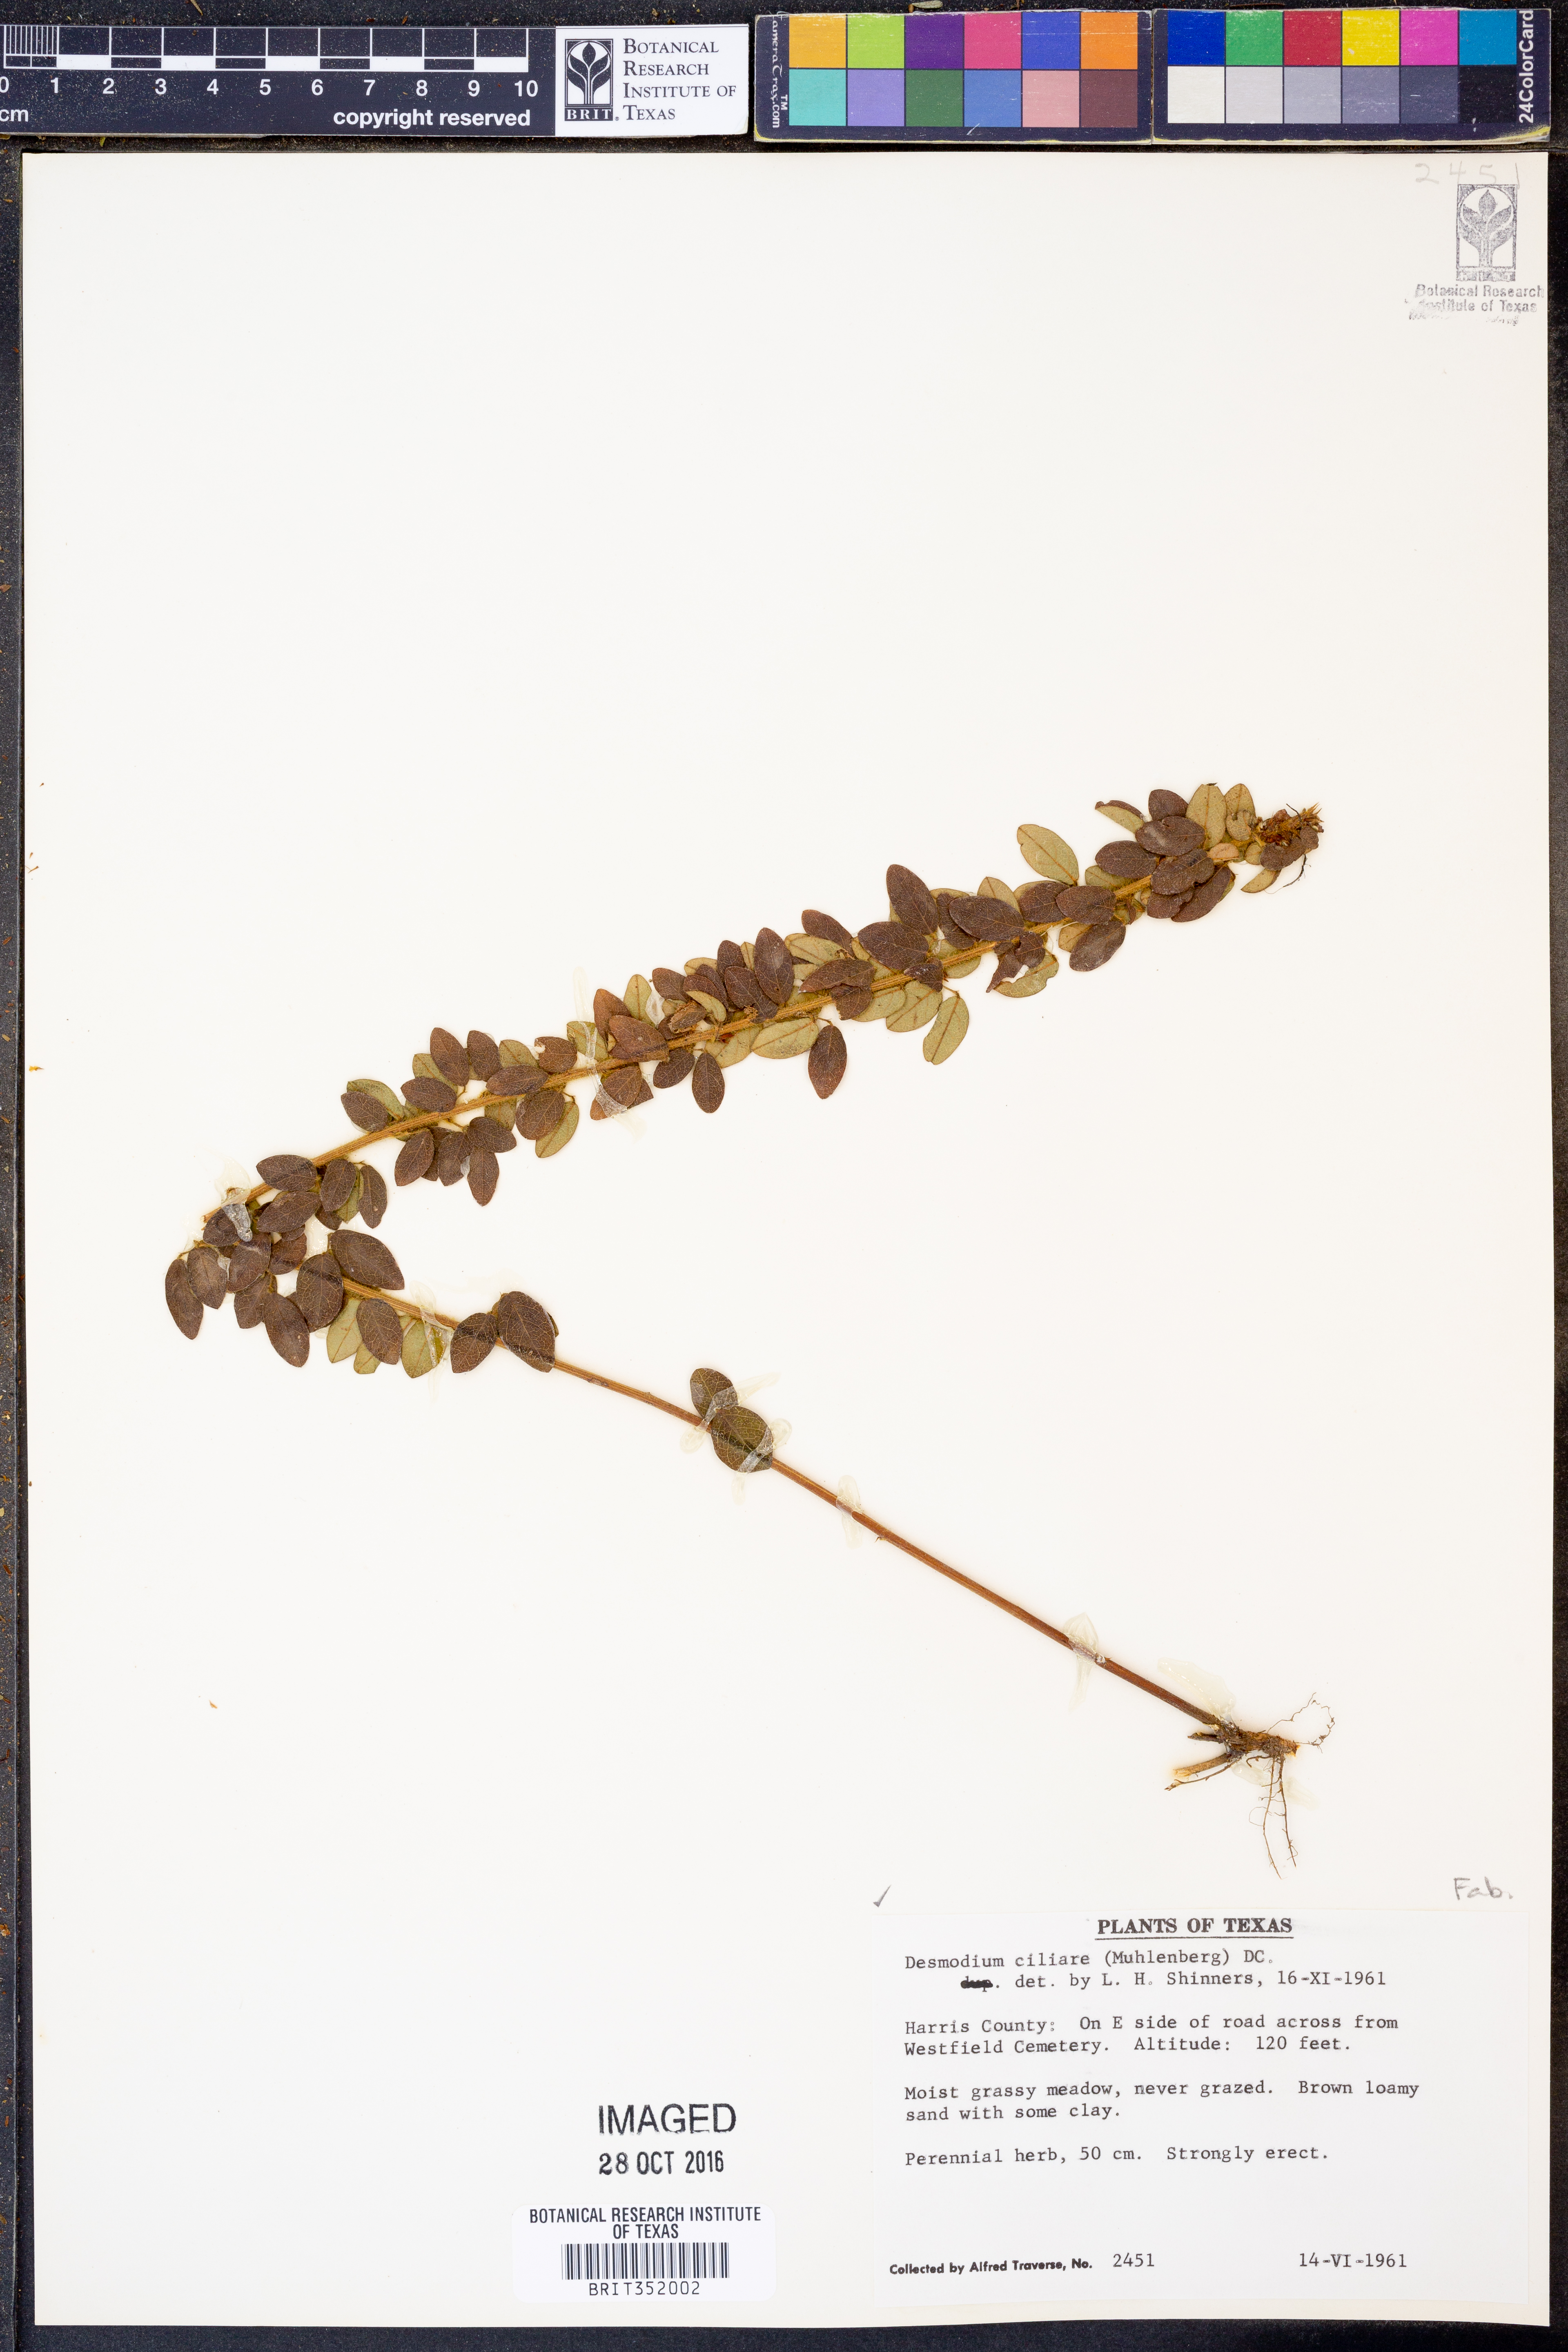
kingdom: Plantae
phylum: Tracheophyta
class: Magnoliopsida
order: Fabales
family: Fabaceae
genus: Desmodium
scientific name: Desmodium ciliare
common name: Hairy small-leaf ticktrefoil
